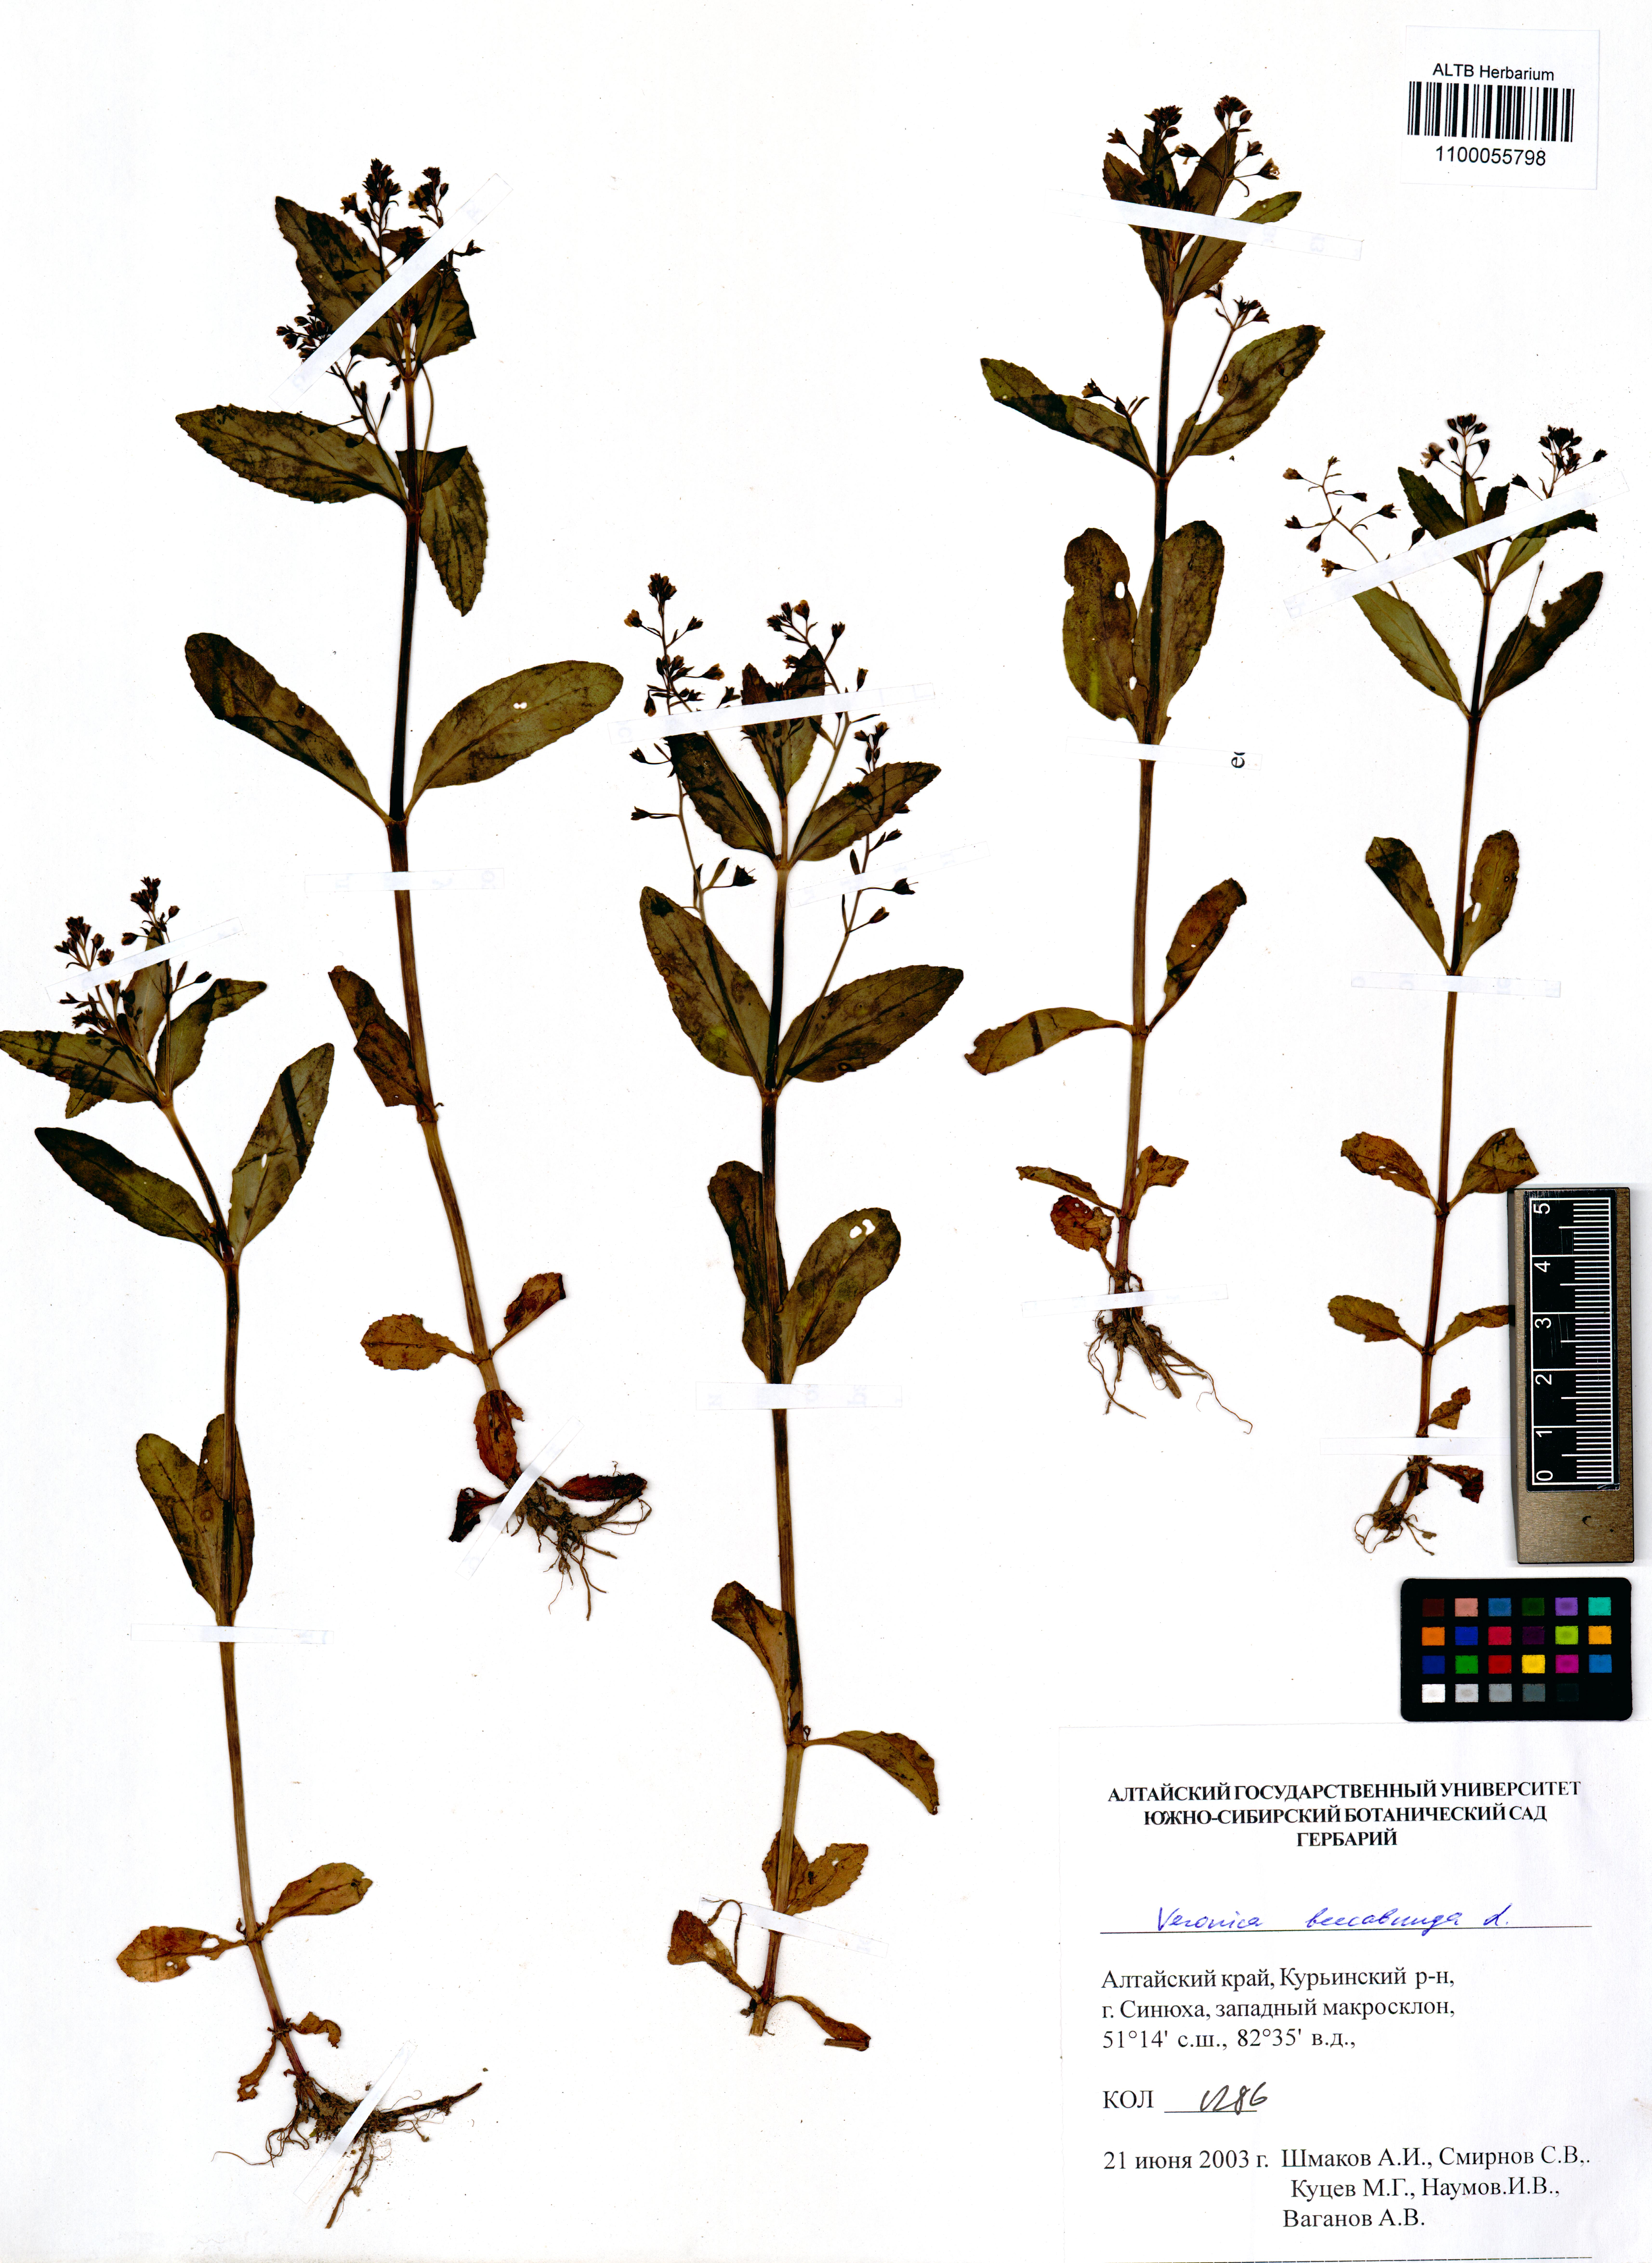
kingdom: Plantae
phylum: Tracheophyta
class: Magnoliopsida
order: Lamiales
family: Plantaginaceae
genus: Veronica
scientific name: Veronica beccabunga
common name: Brooklime
